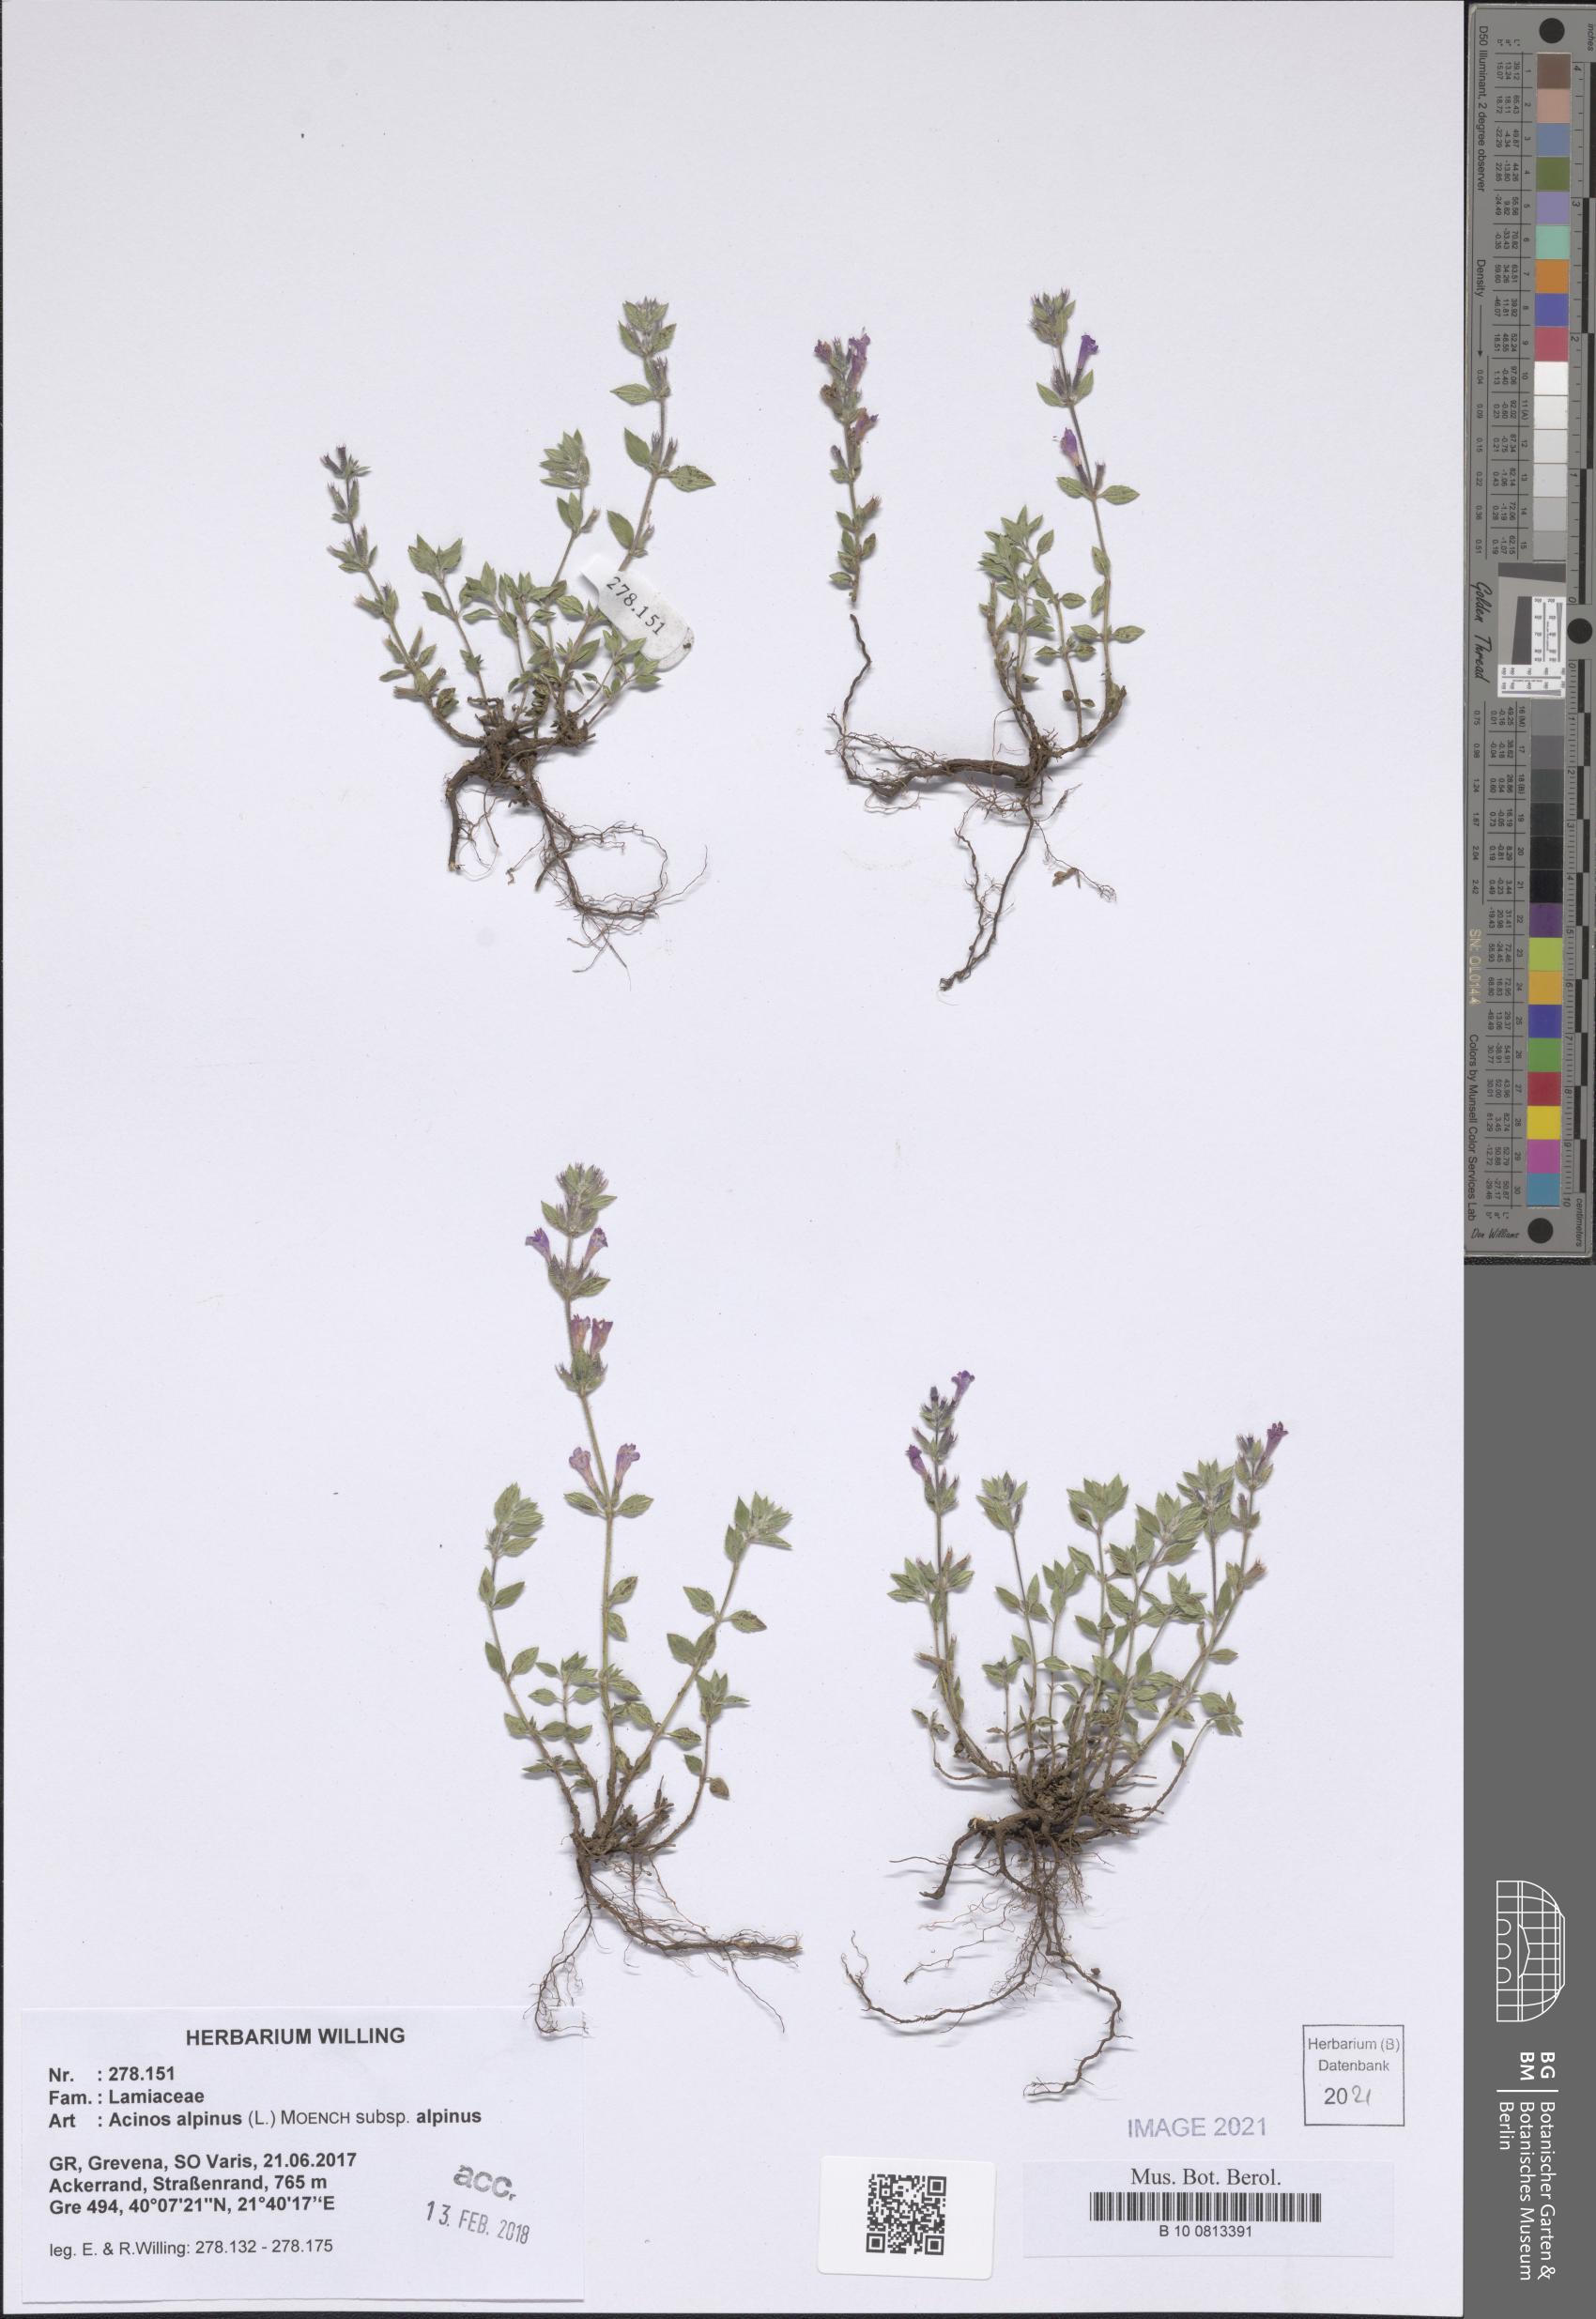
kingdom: Plantae
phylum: Tracheophyta
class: Magnoliopsida
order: Lamiales
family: Lamiaceae
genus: Clinopodium
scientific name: Clinopodium alpinum
